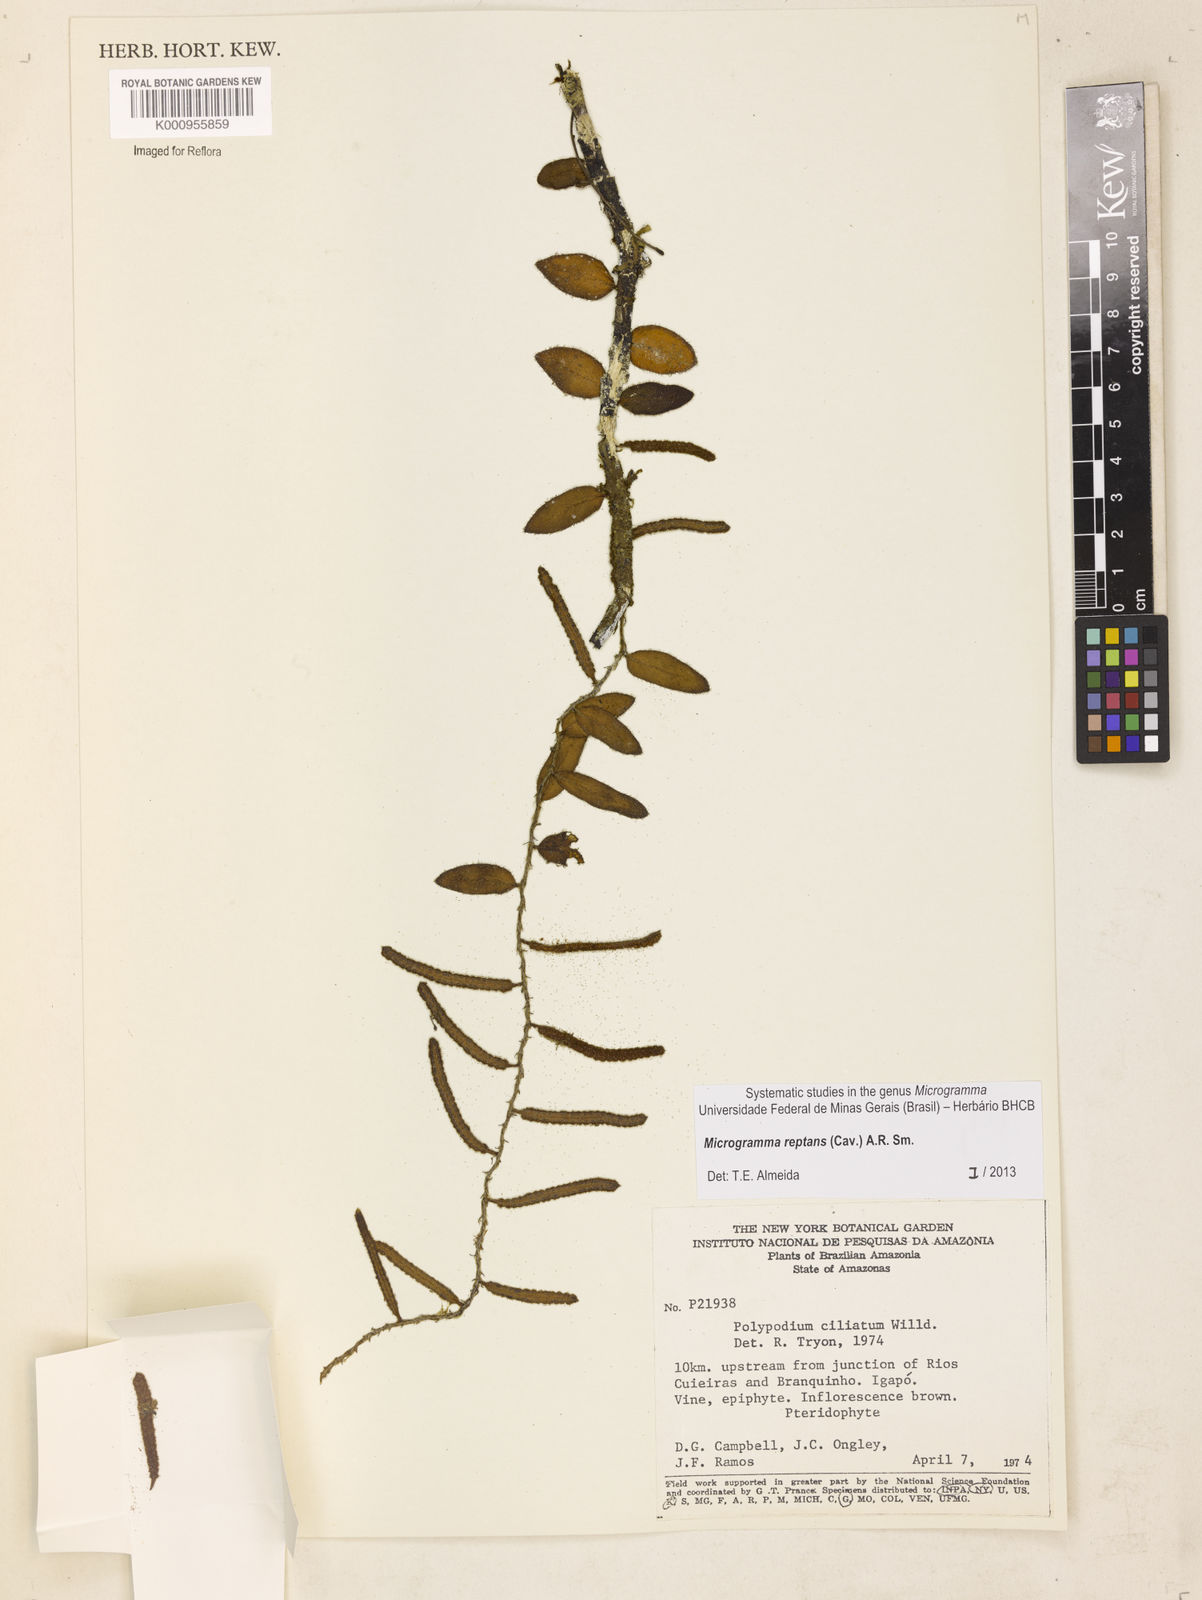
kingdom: Plantae
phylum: Tracheophyta
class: Polypodiopsida
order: Polypodiales
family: Polypodiaceae
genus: Microgramma
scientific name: Microgramma reptans
